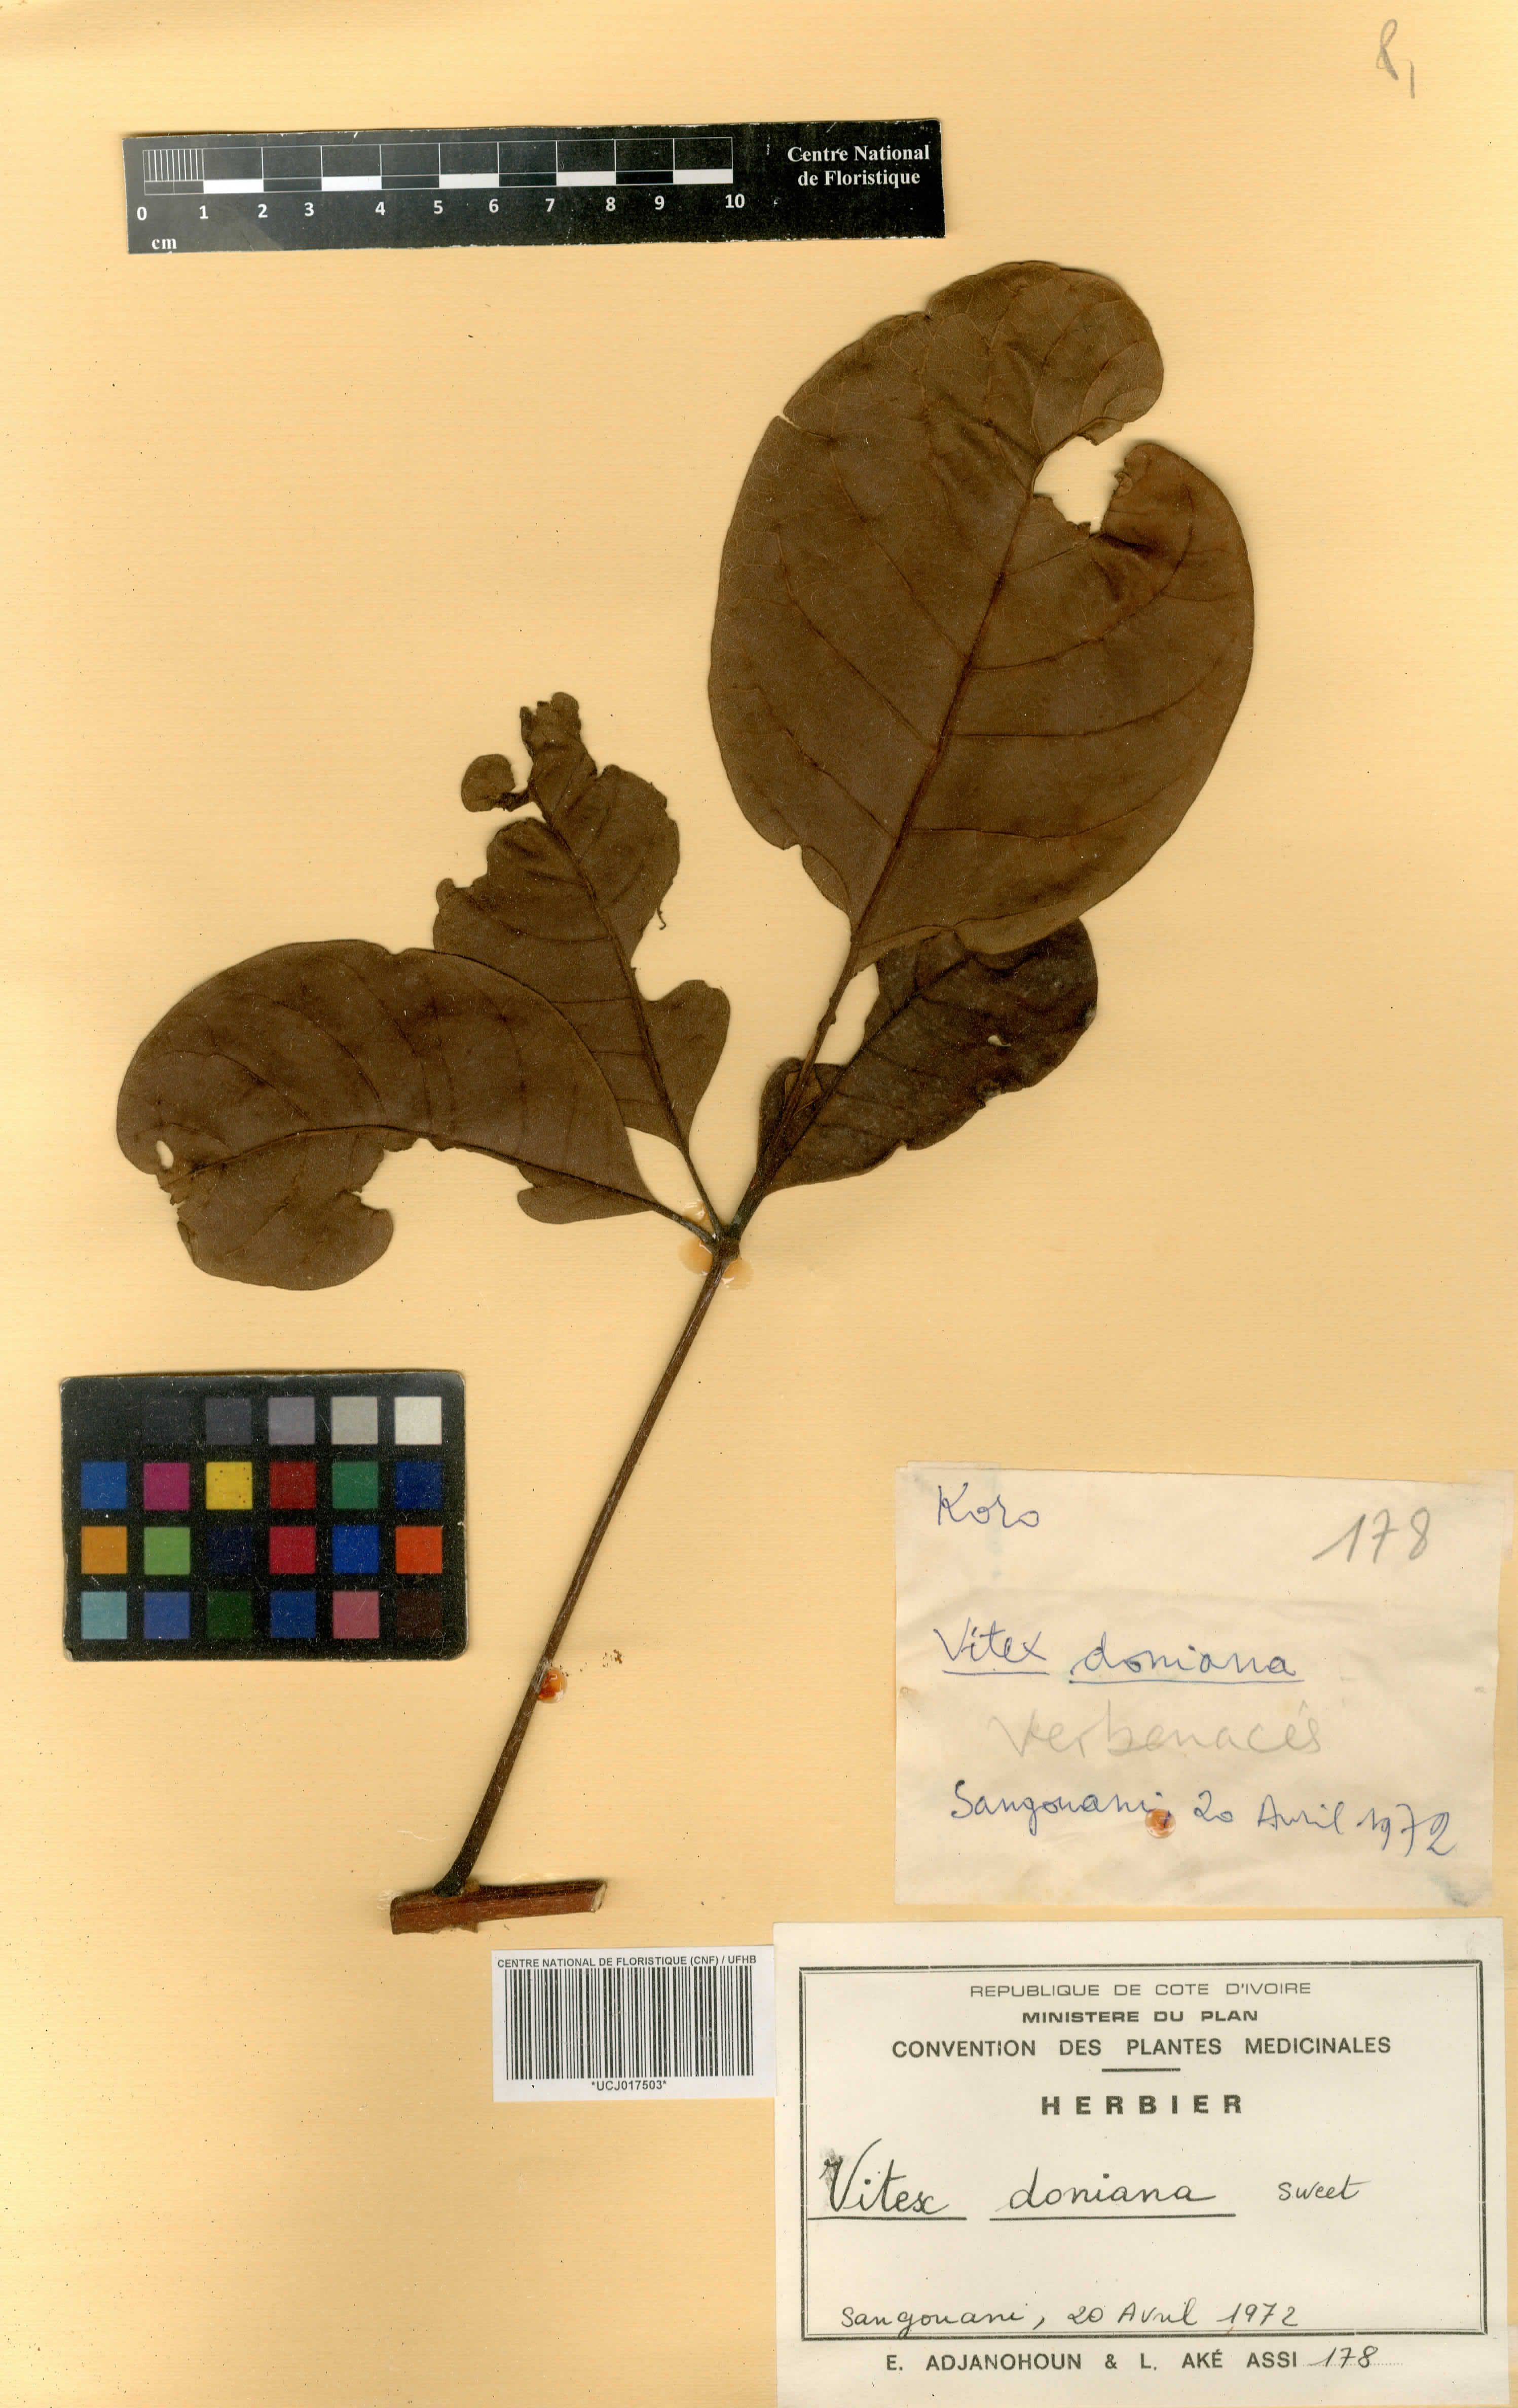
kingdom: Plantae
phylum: Tracheophyta
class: Magnoliopsida
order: Lamiales
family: Lamiaceae
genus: Vitex
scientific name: Vitex doniana
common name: Black plum
